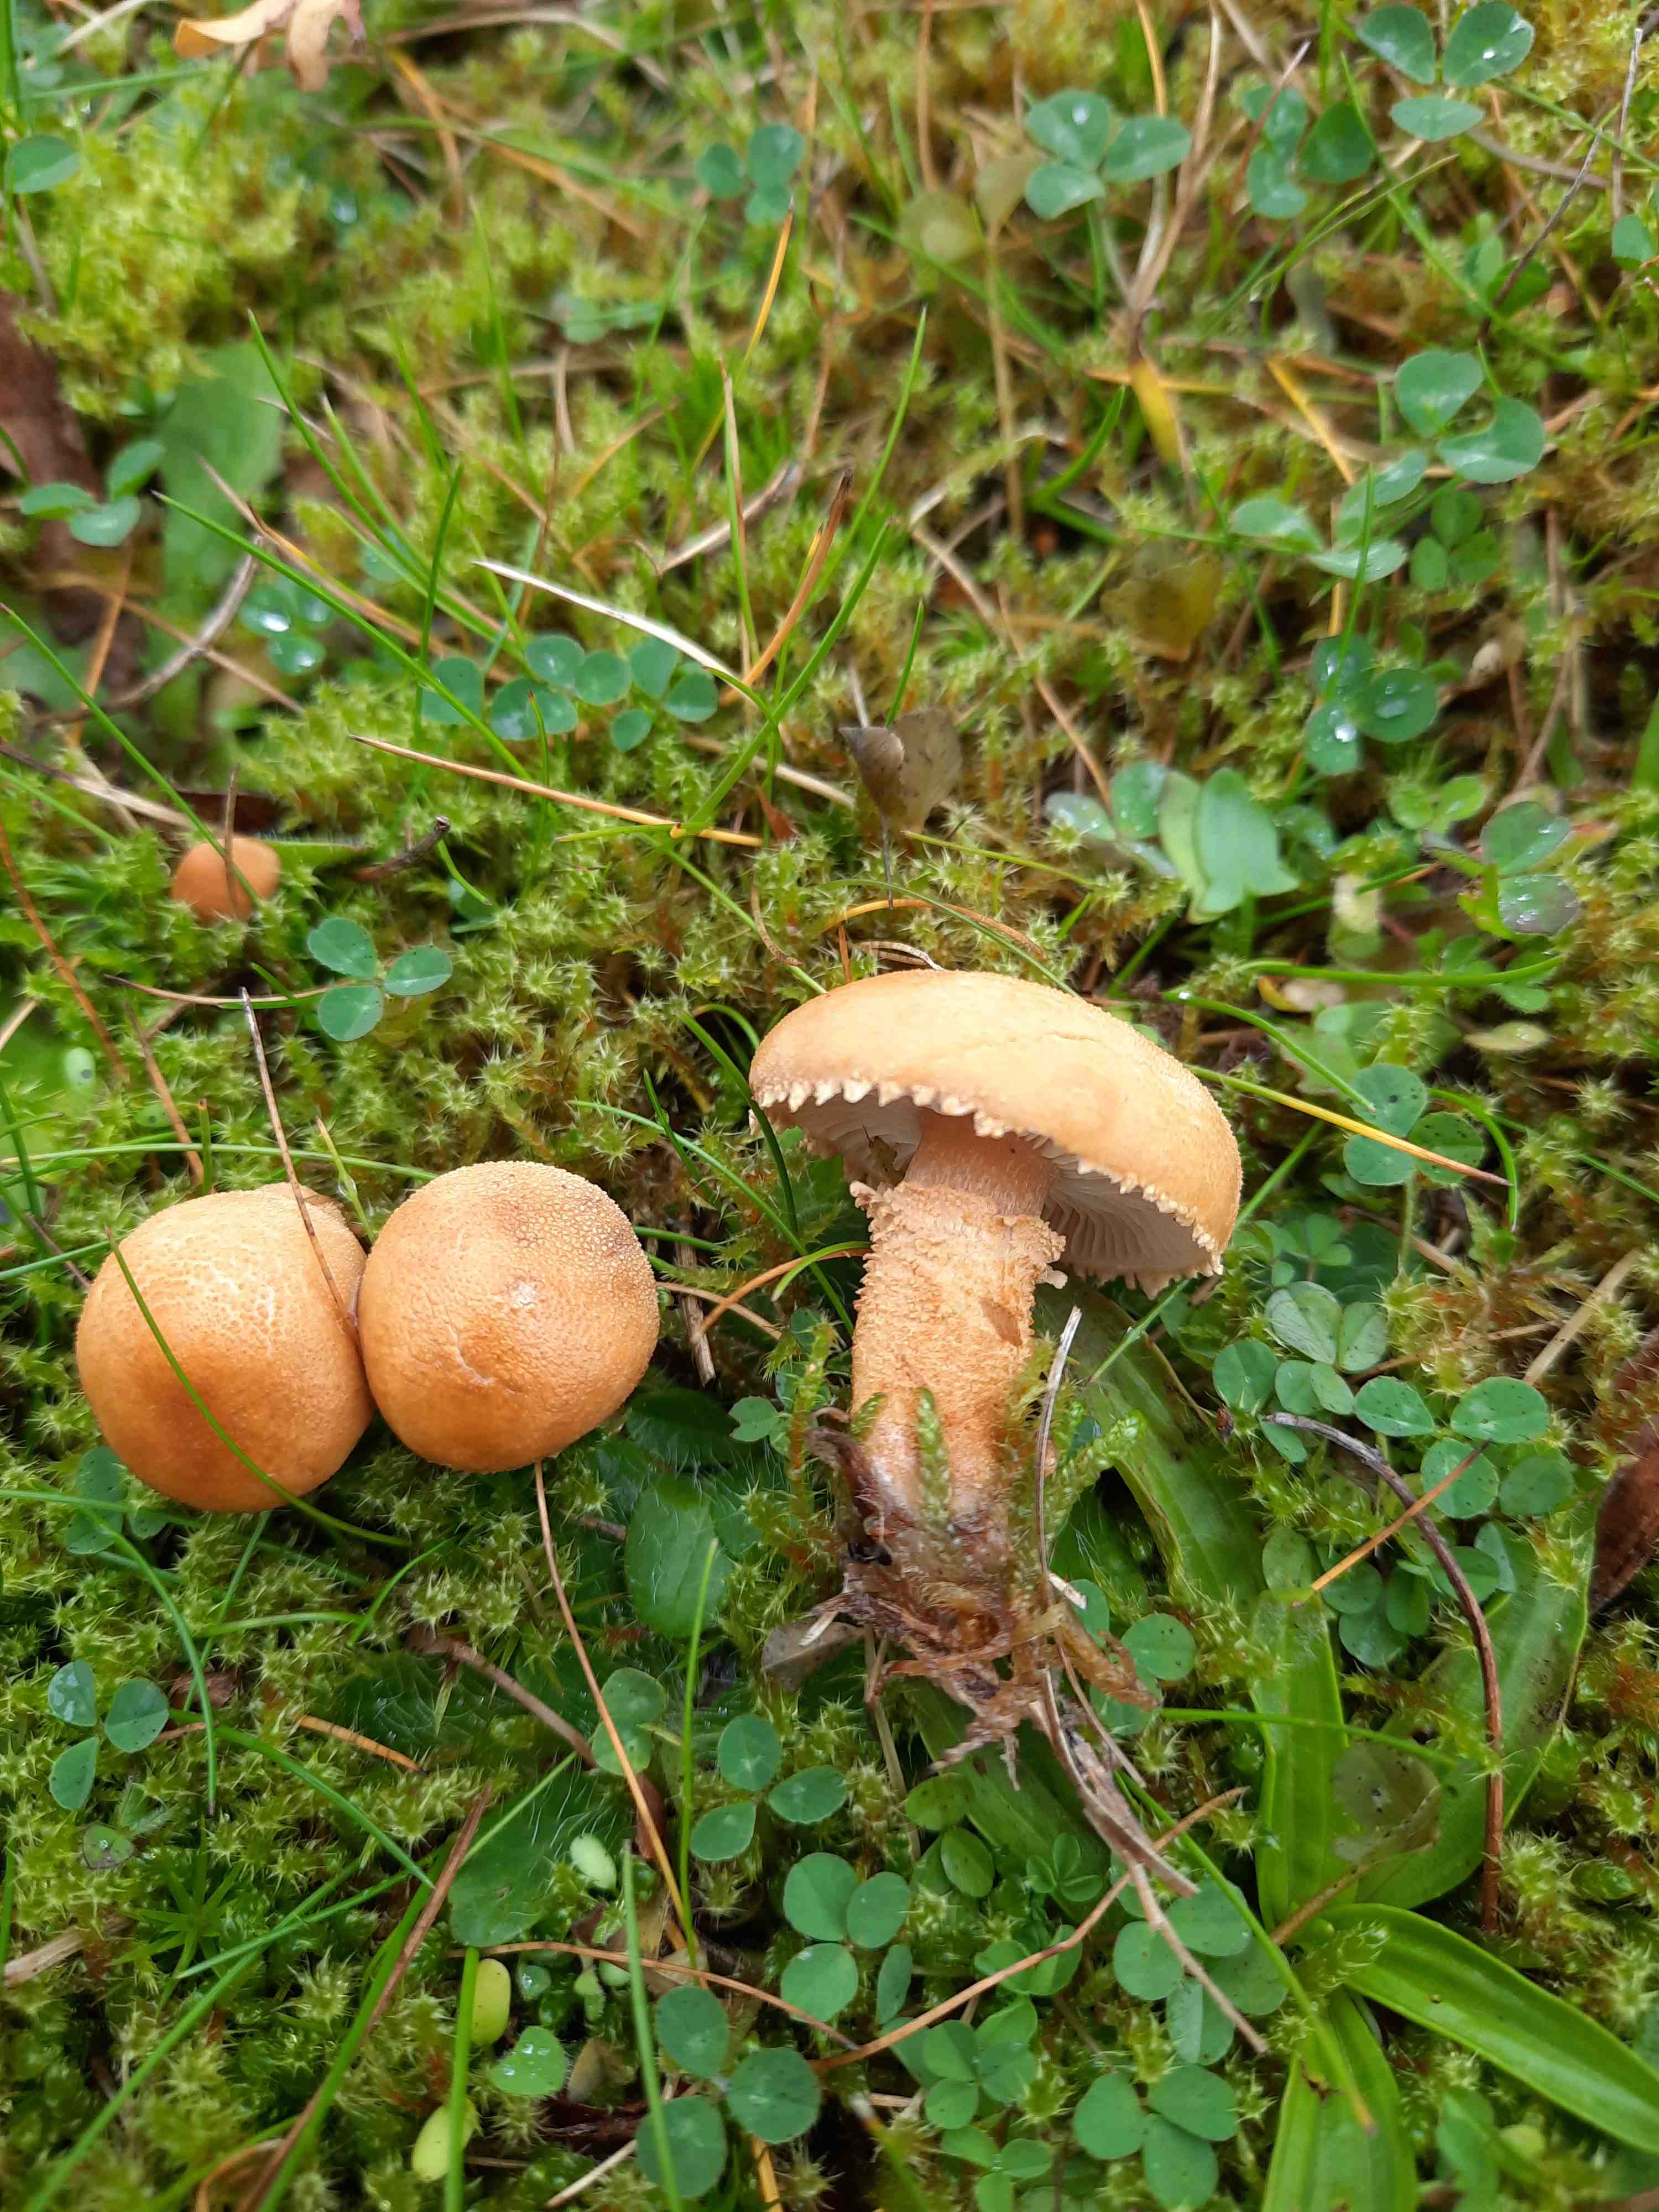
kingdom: Fungi
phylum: Basidiomycota
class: Agaricomycetes
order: Agaricales
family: Tricholomataceae
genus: Cystoderma
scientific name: Cystoderma amianthinum
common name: okkergul grynhat
